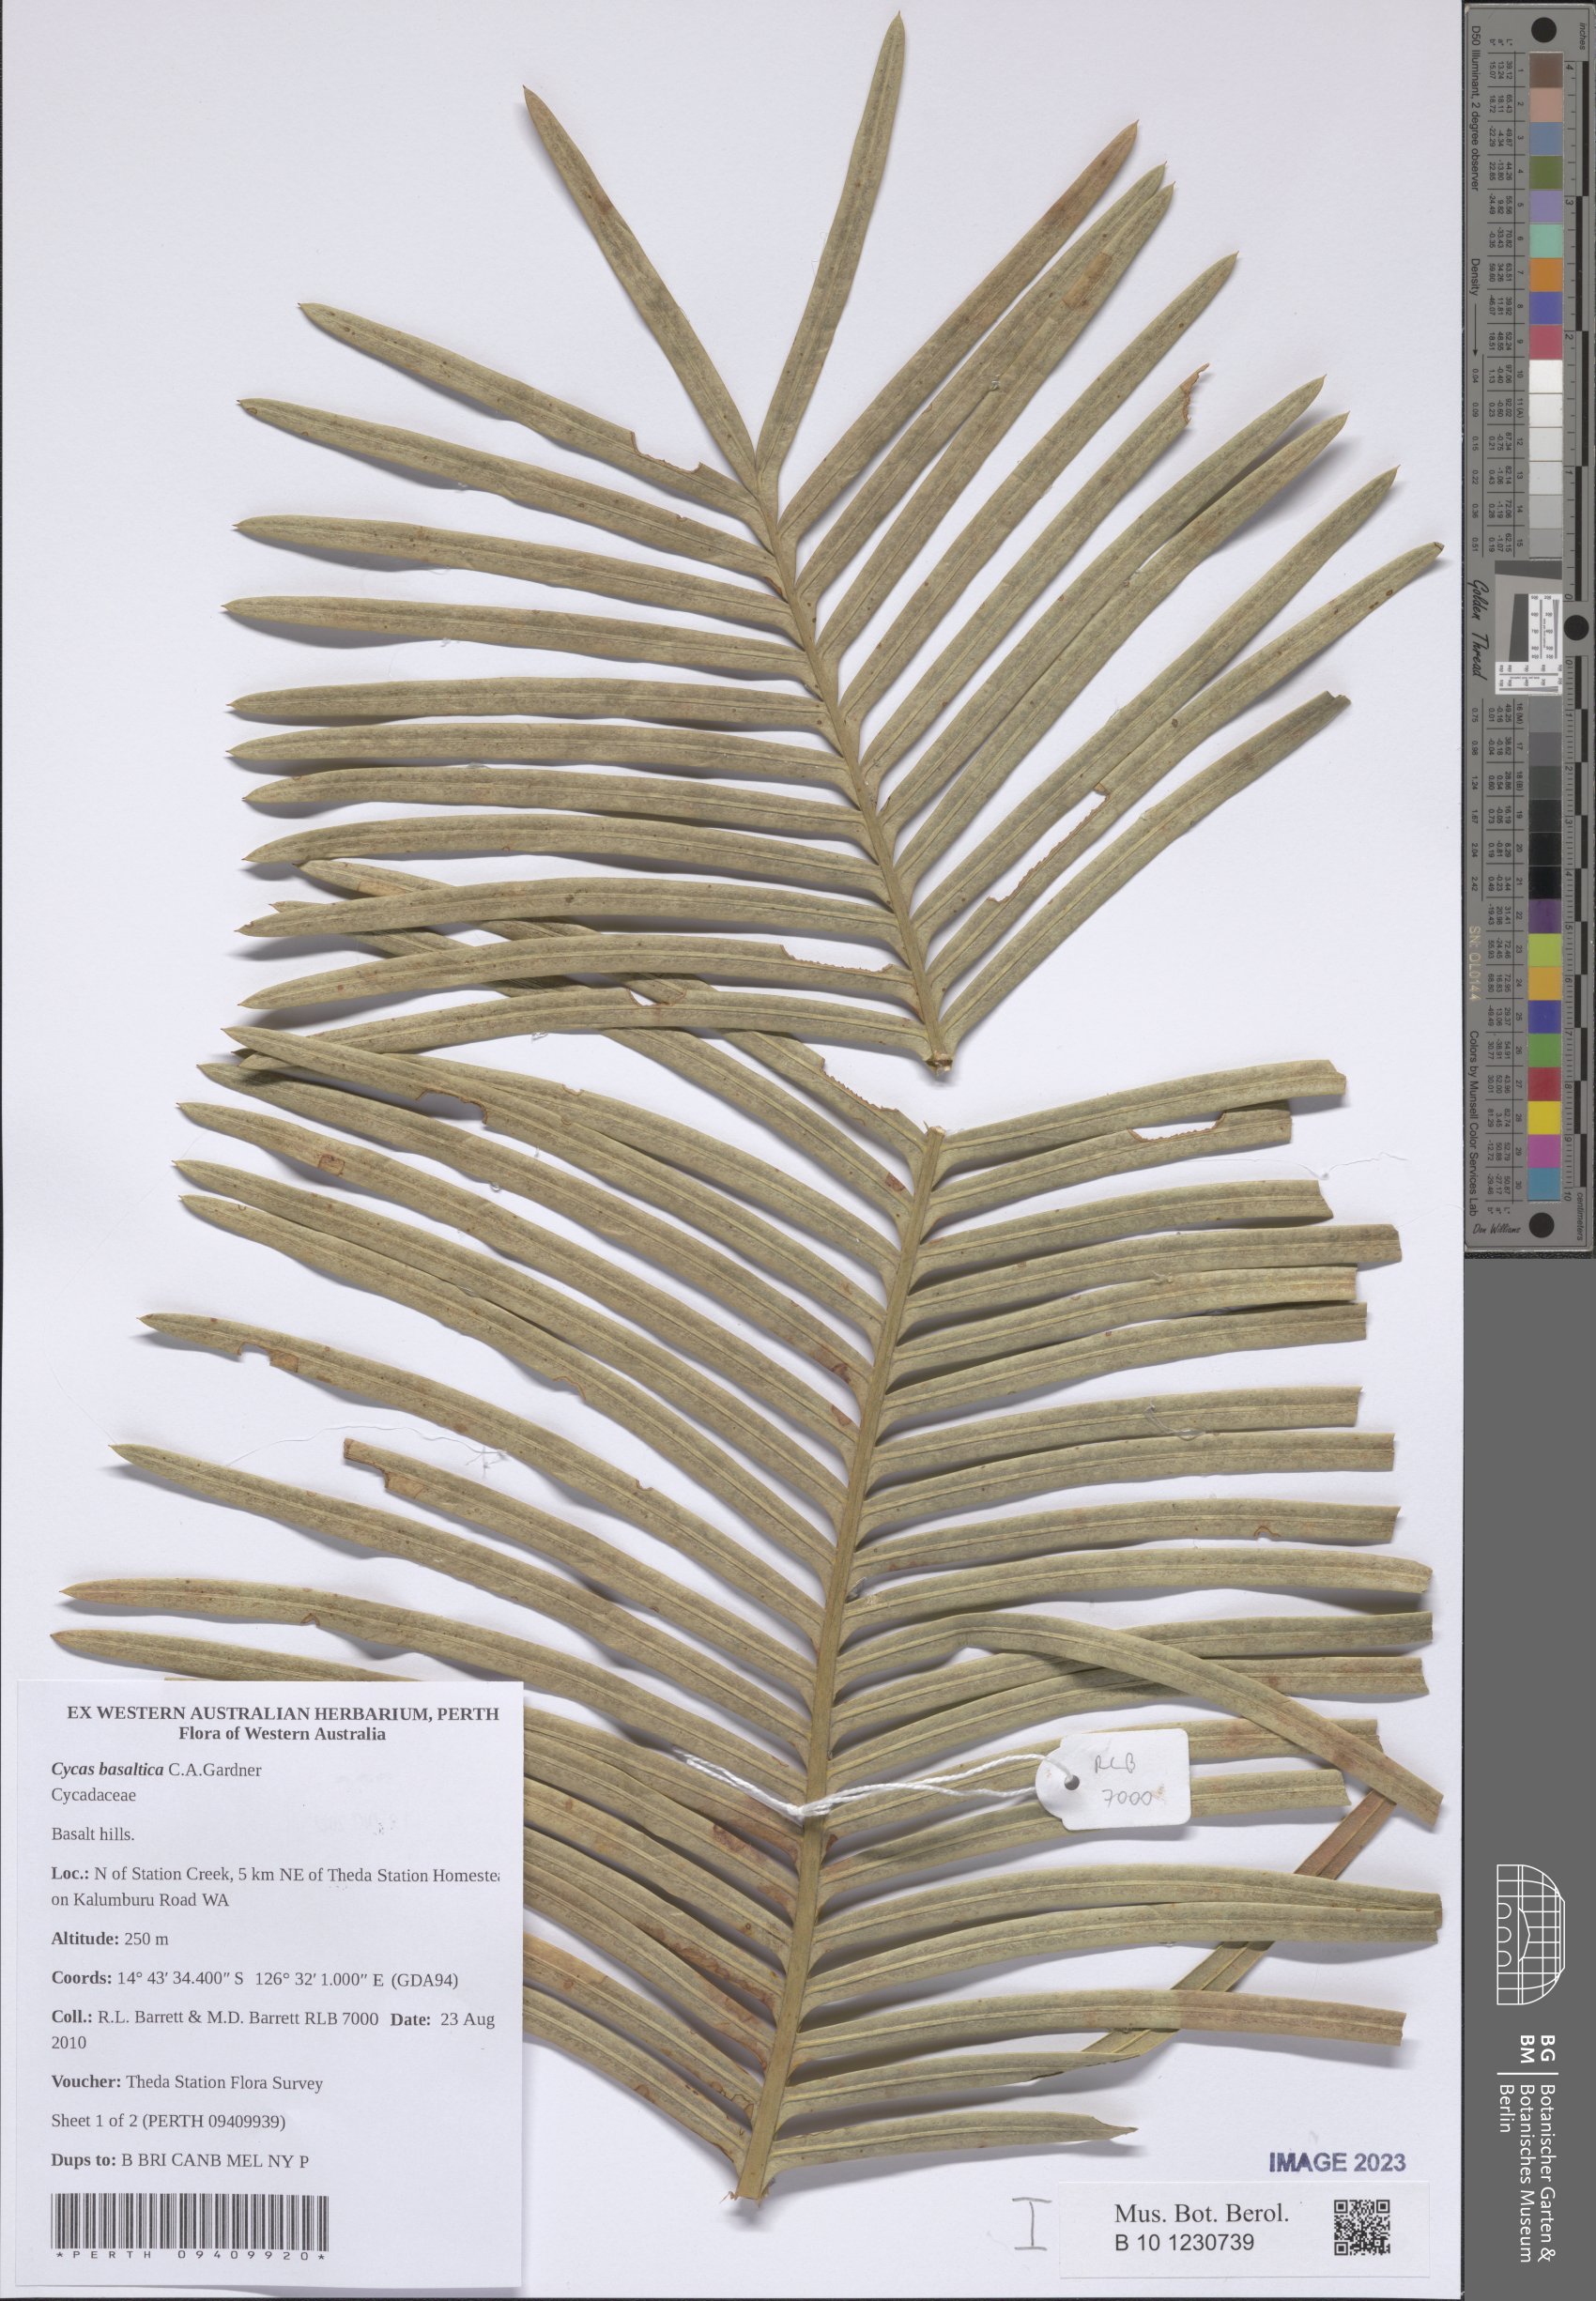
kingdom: Plantae
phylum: Tracheophyta
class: Cycadopsida
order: Cycadales
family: Cycadaceae
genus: Cycas
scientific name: Cycas basaltica
